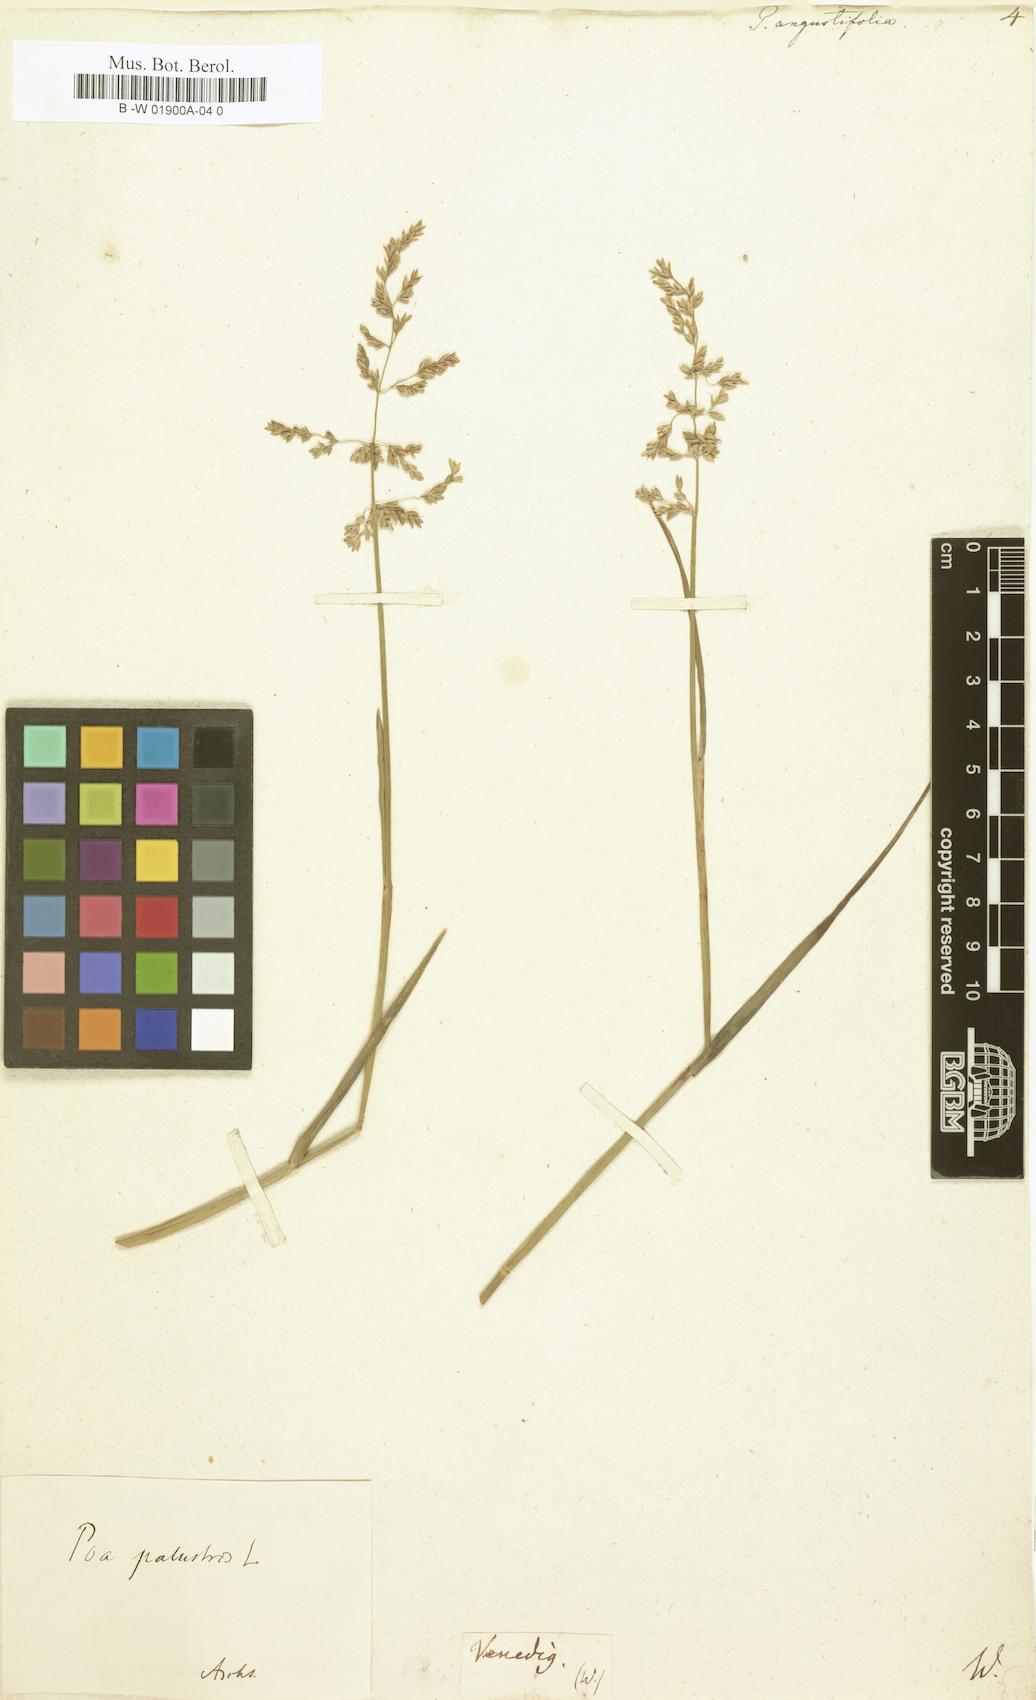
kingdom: Plantae
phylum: Tracheophyta
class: Liliopsida
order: Poales
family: Poaceae
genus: Poa
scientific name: Poa pratensis
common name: Kentucky bluegrass
